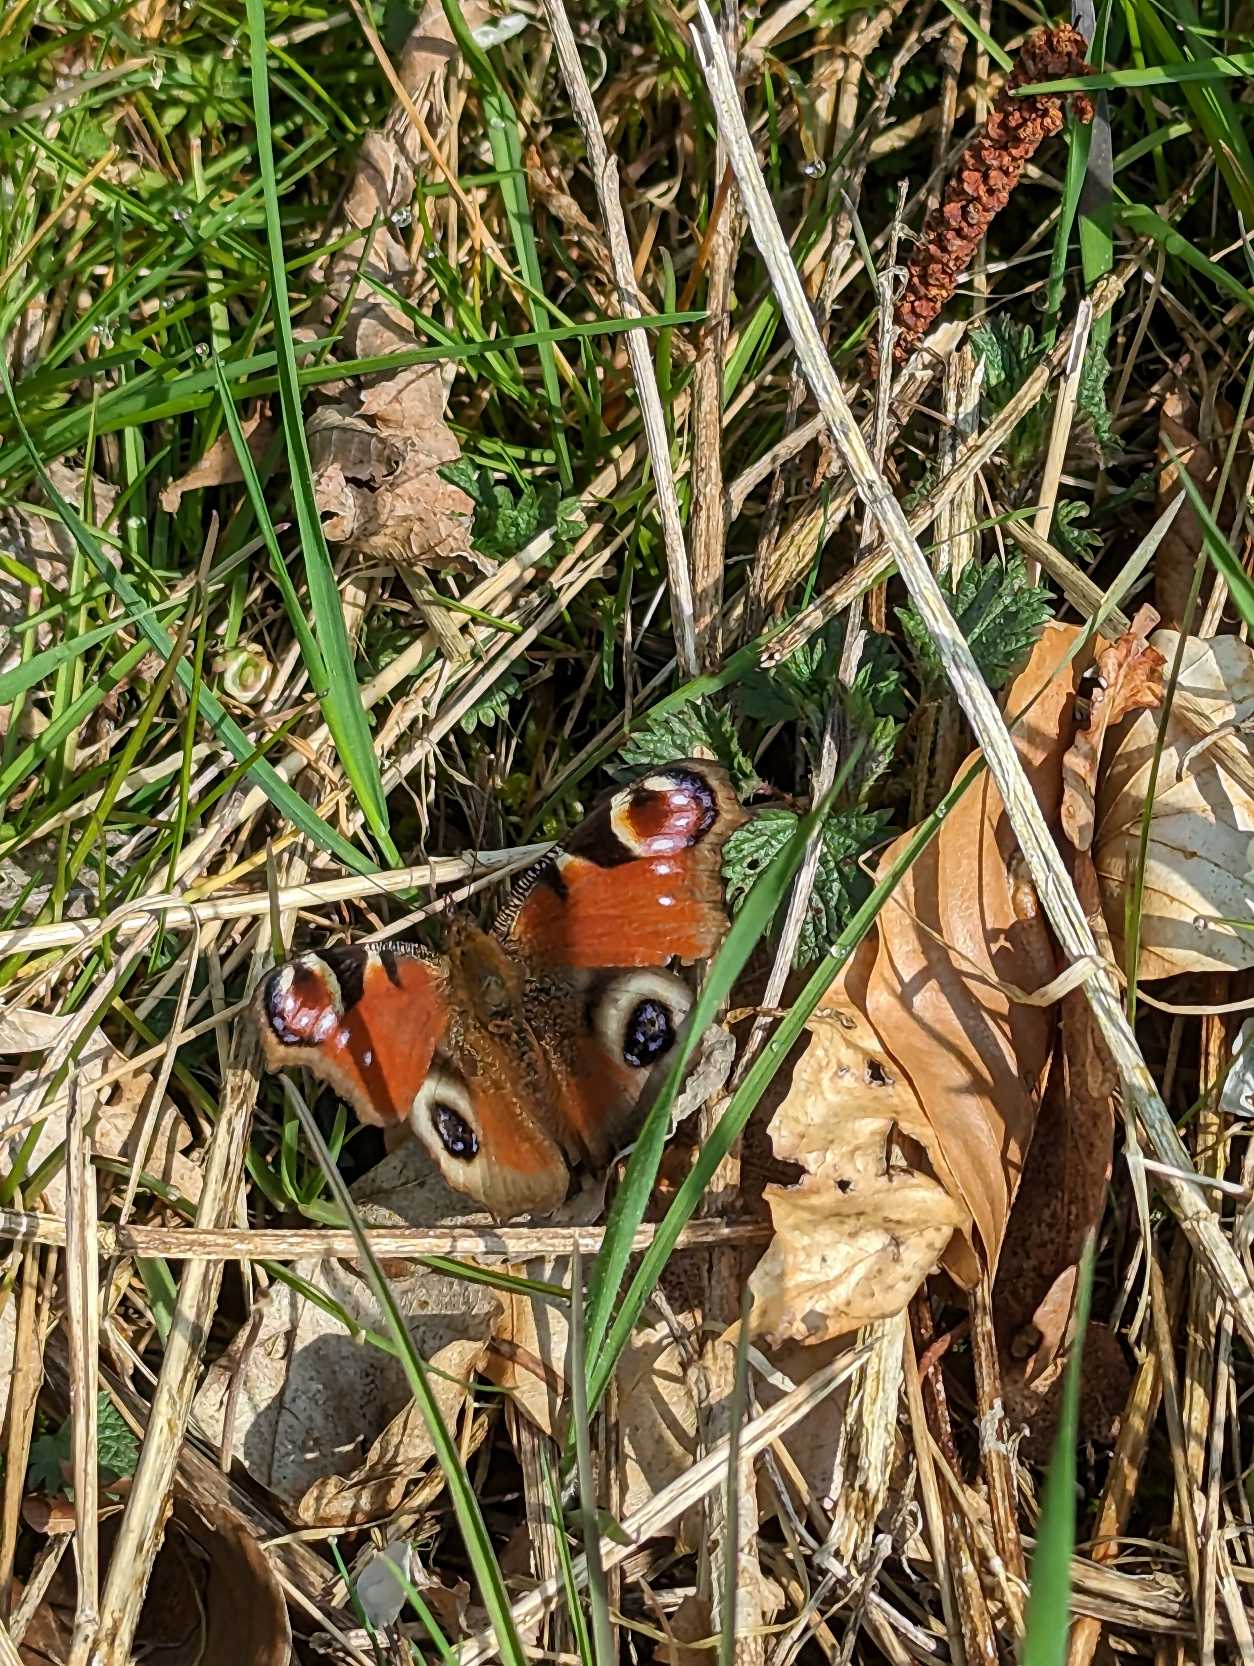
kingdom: Animalia
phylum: Arthropoda
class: Insecta
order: Lepidoptera
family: Nymphalidae
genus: Aglais
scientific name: Aglais io
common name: Dagpåfugleøje
